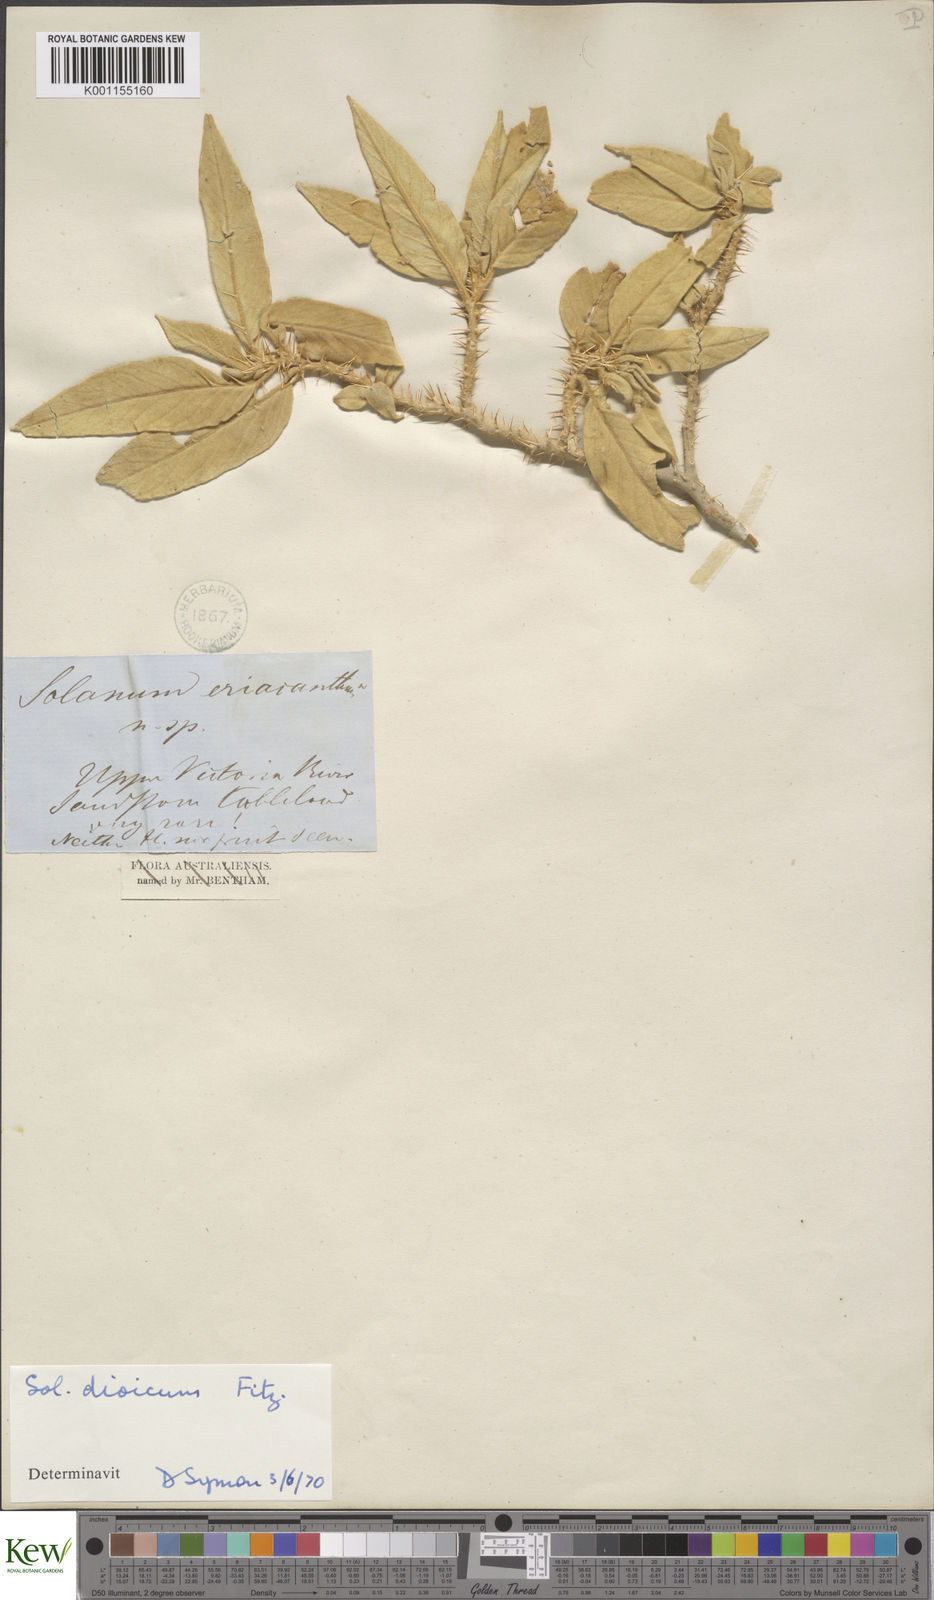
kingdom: Plantae
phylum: Tracheophyta
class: Magnoliopsida
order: Solanales
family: Solanaceae
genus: Solanum
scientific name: Solanum dioicum
